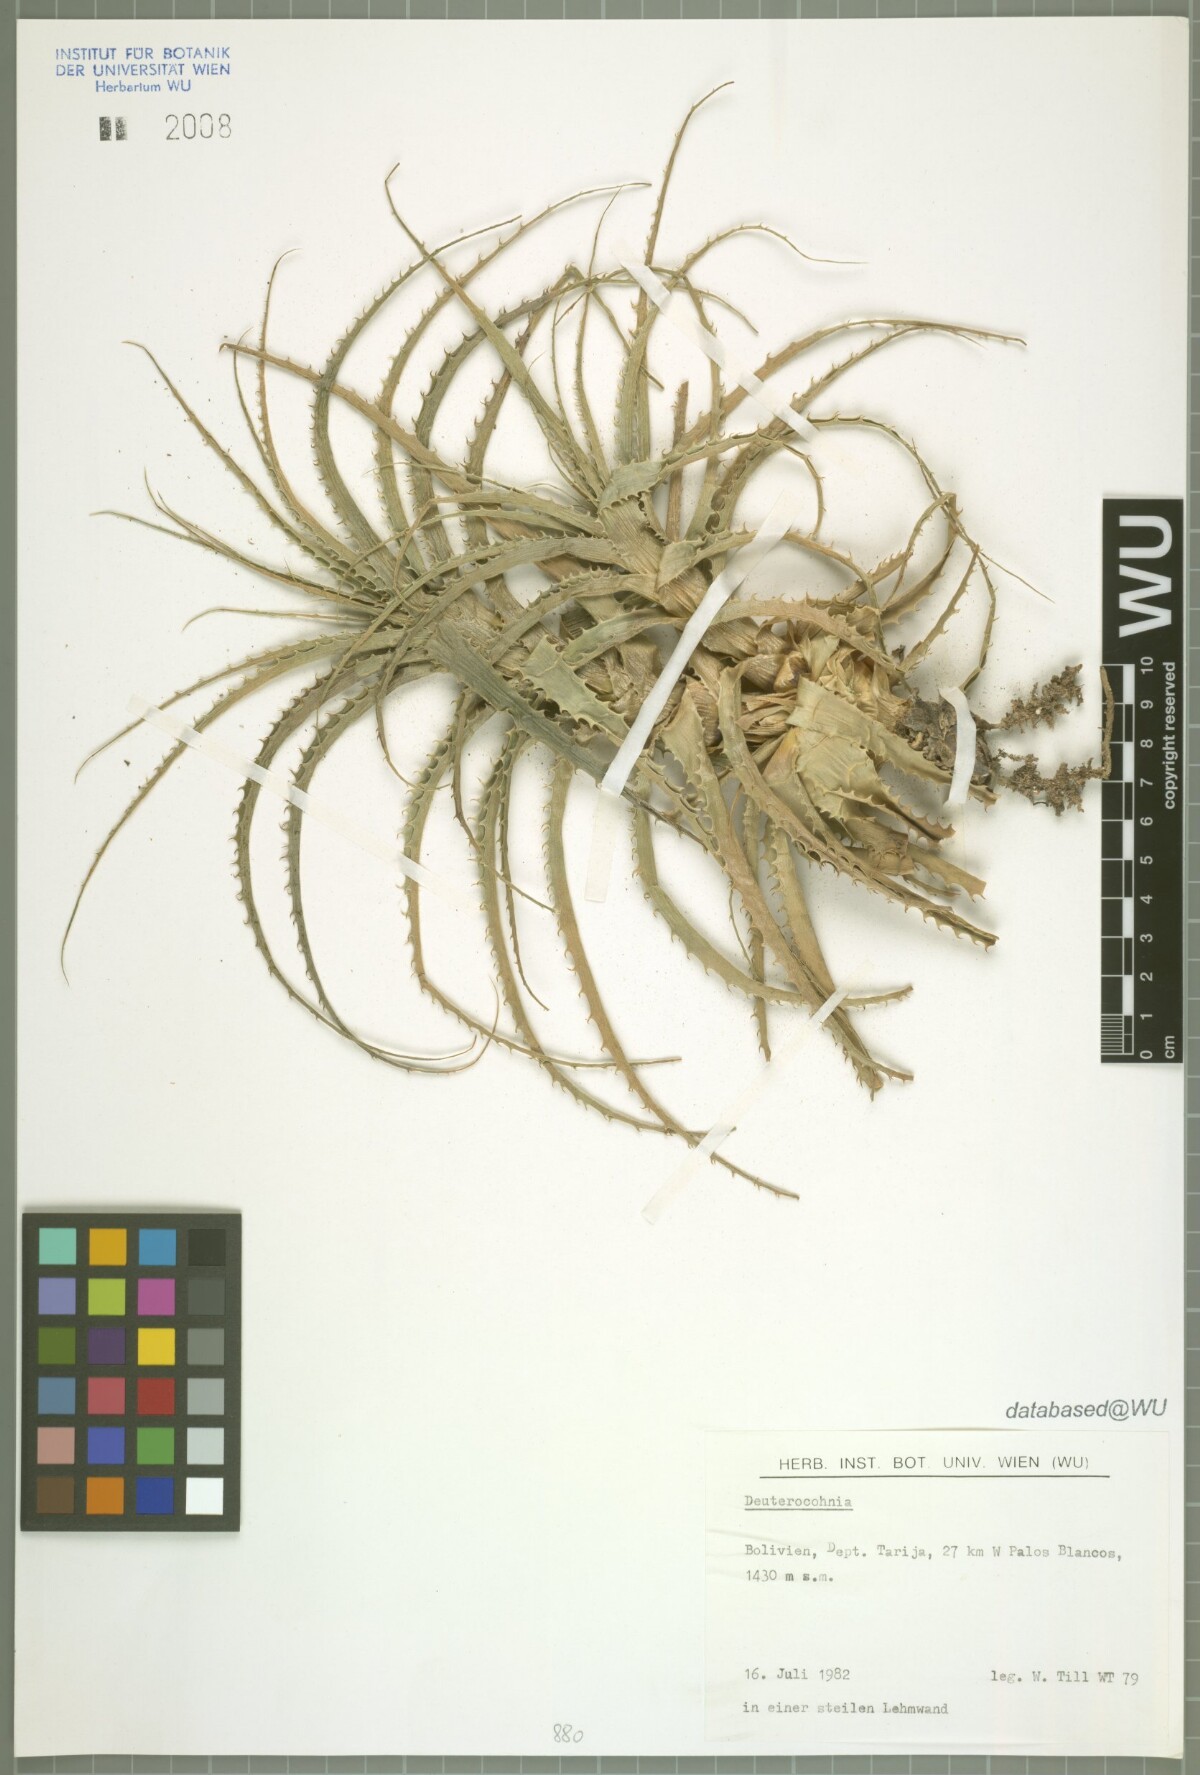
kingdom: Plantae
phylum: Tracheophyta
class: Liliopsida
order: Poales
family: Bromeliaceae
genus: Deuterocohnia
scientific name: Deuterocohnia
